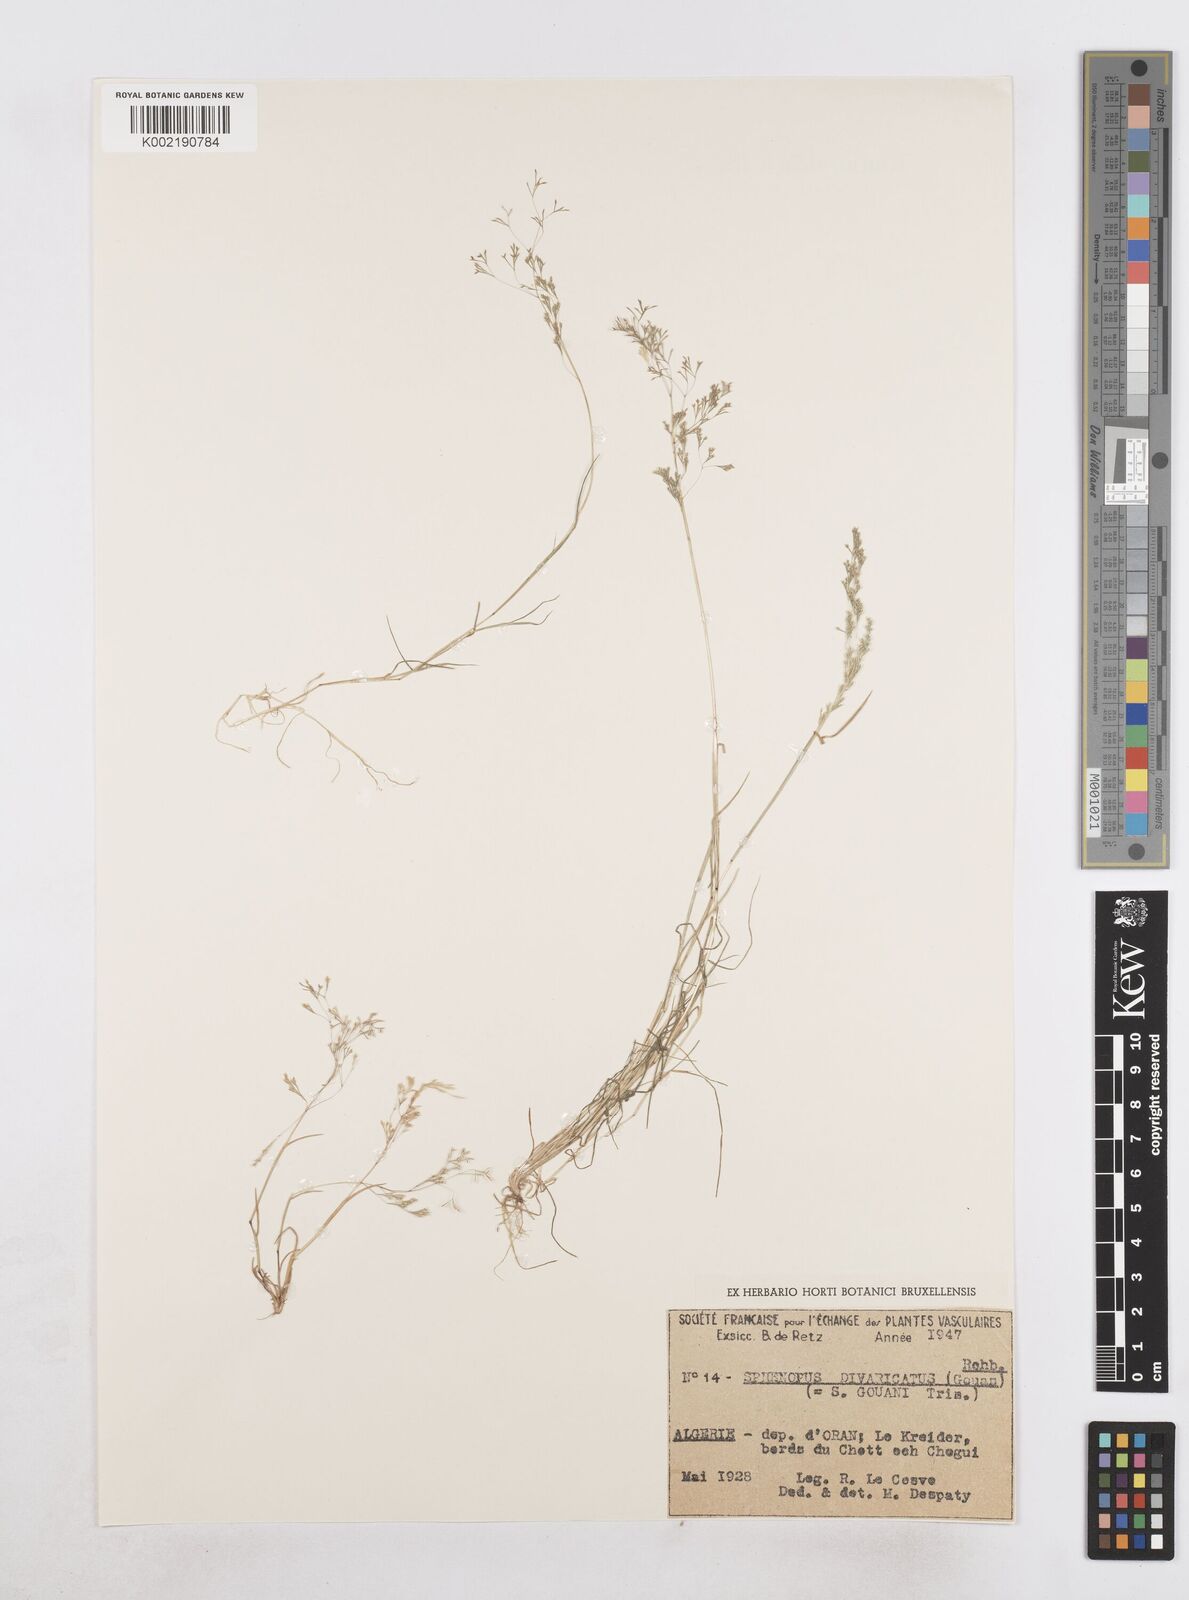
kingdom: Plantae
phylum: Tracheophyta
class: Liliopsida
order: Poales
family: Poaceae
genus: Sphenopus
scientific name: Sphenopus divaricatus
